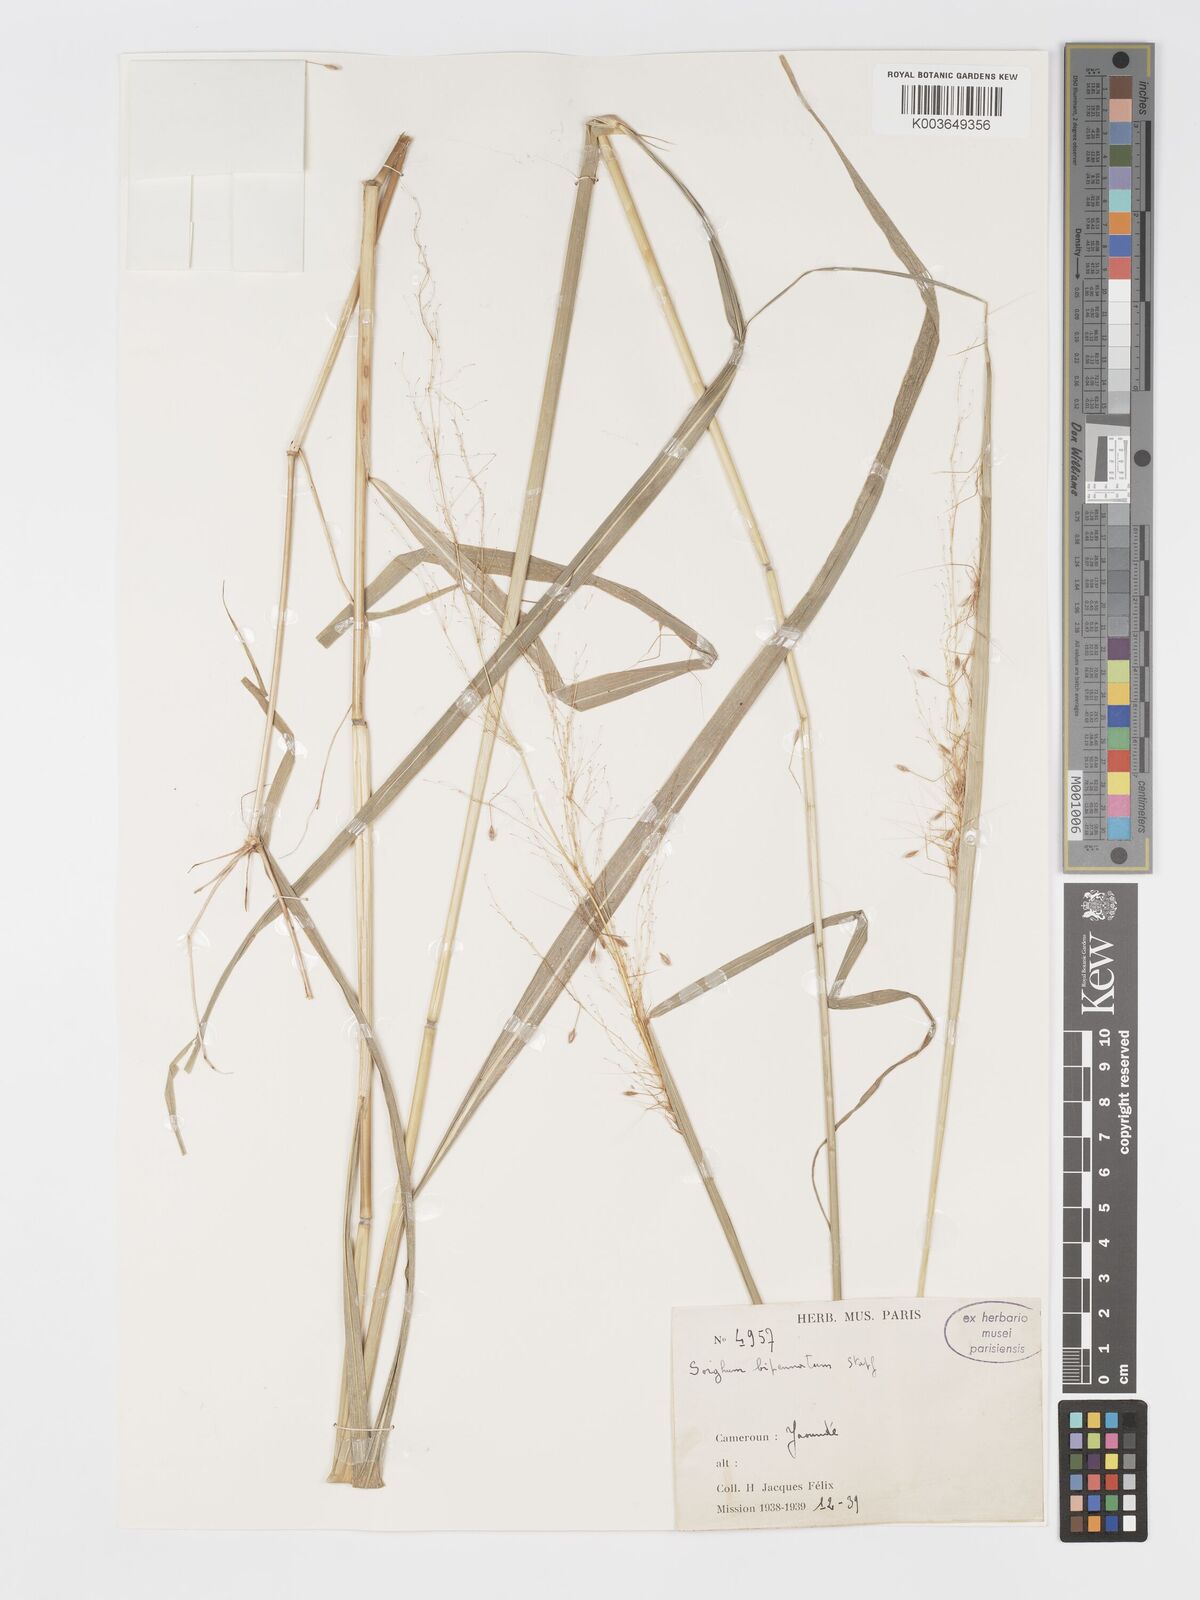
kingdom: Plantae
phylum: Tracheophyta
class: Liliopsida
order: Poales
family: Poaceae
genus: Sorghastrum
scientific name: Sorghastrum incompletum
